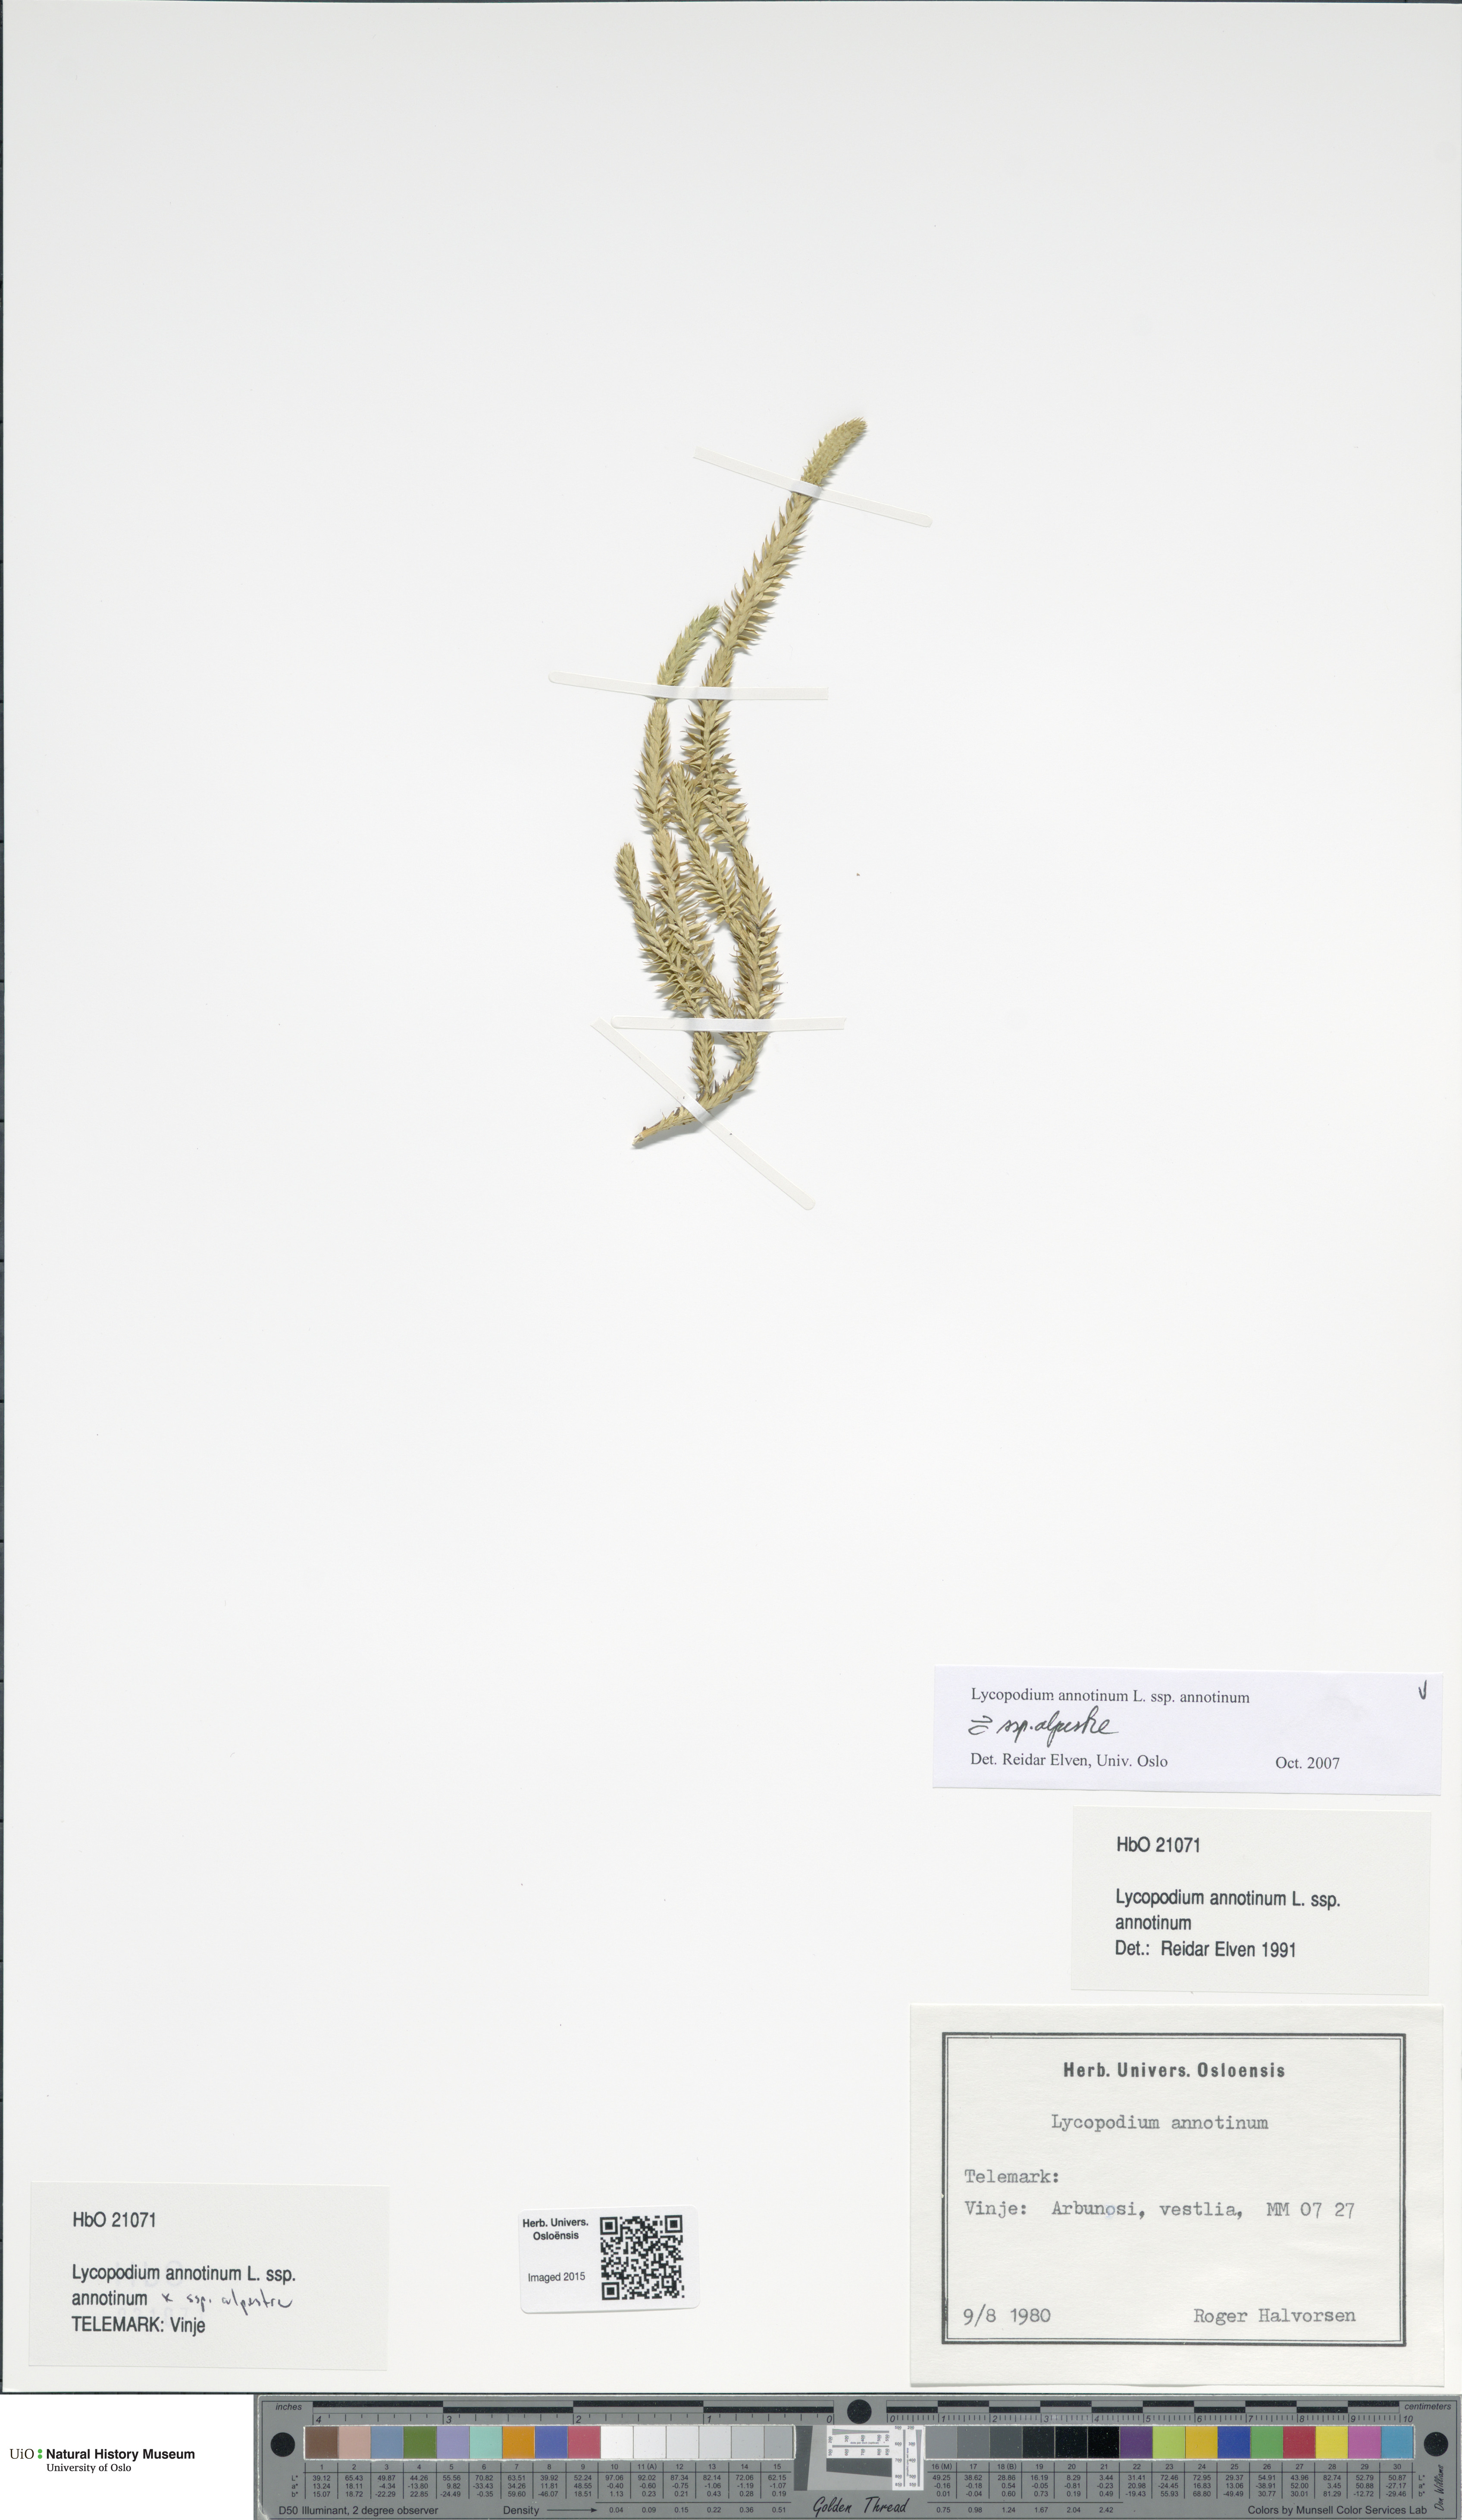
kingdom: Plantae
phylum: Tracheophyta
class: Lycopodiopsida
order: Lycopodiales
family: Lycopodiaceae
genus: Lycopodium
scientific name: Lycopodium
